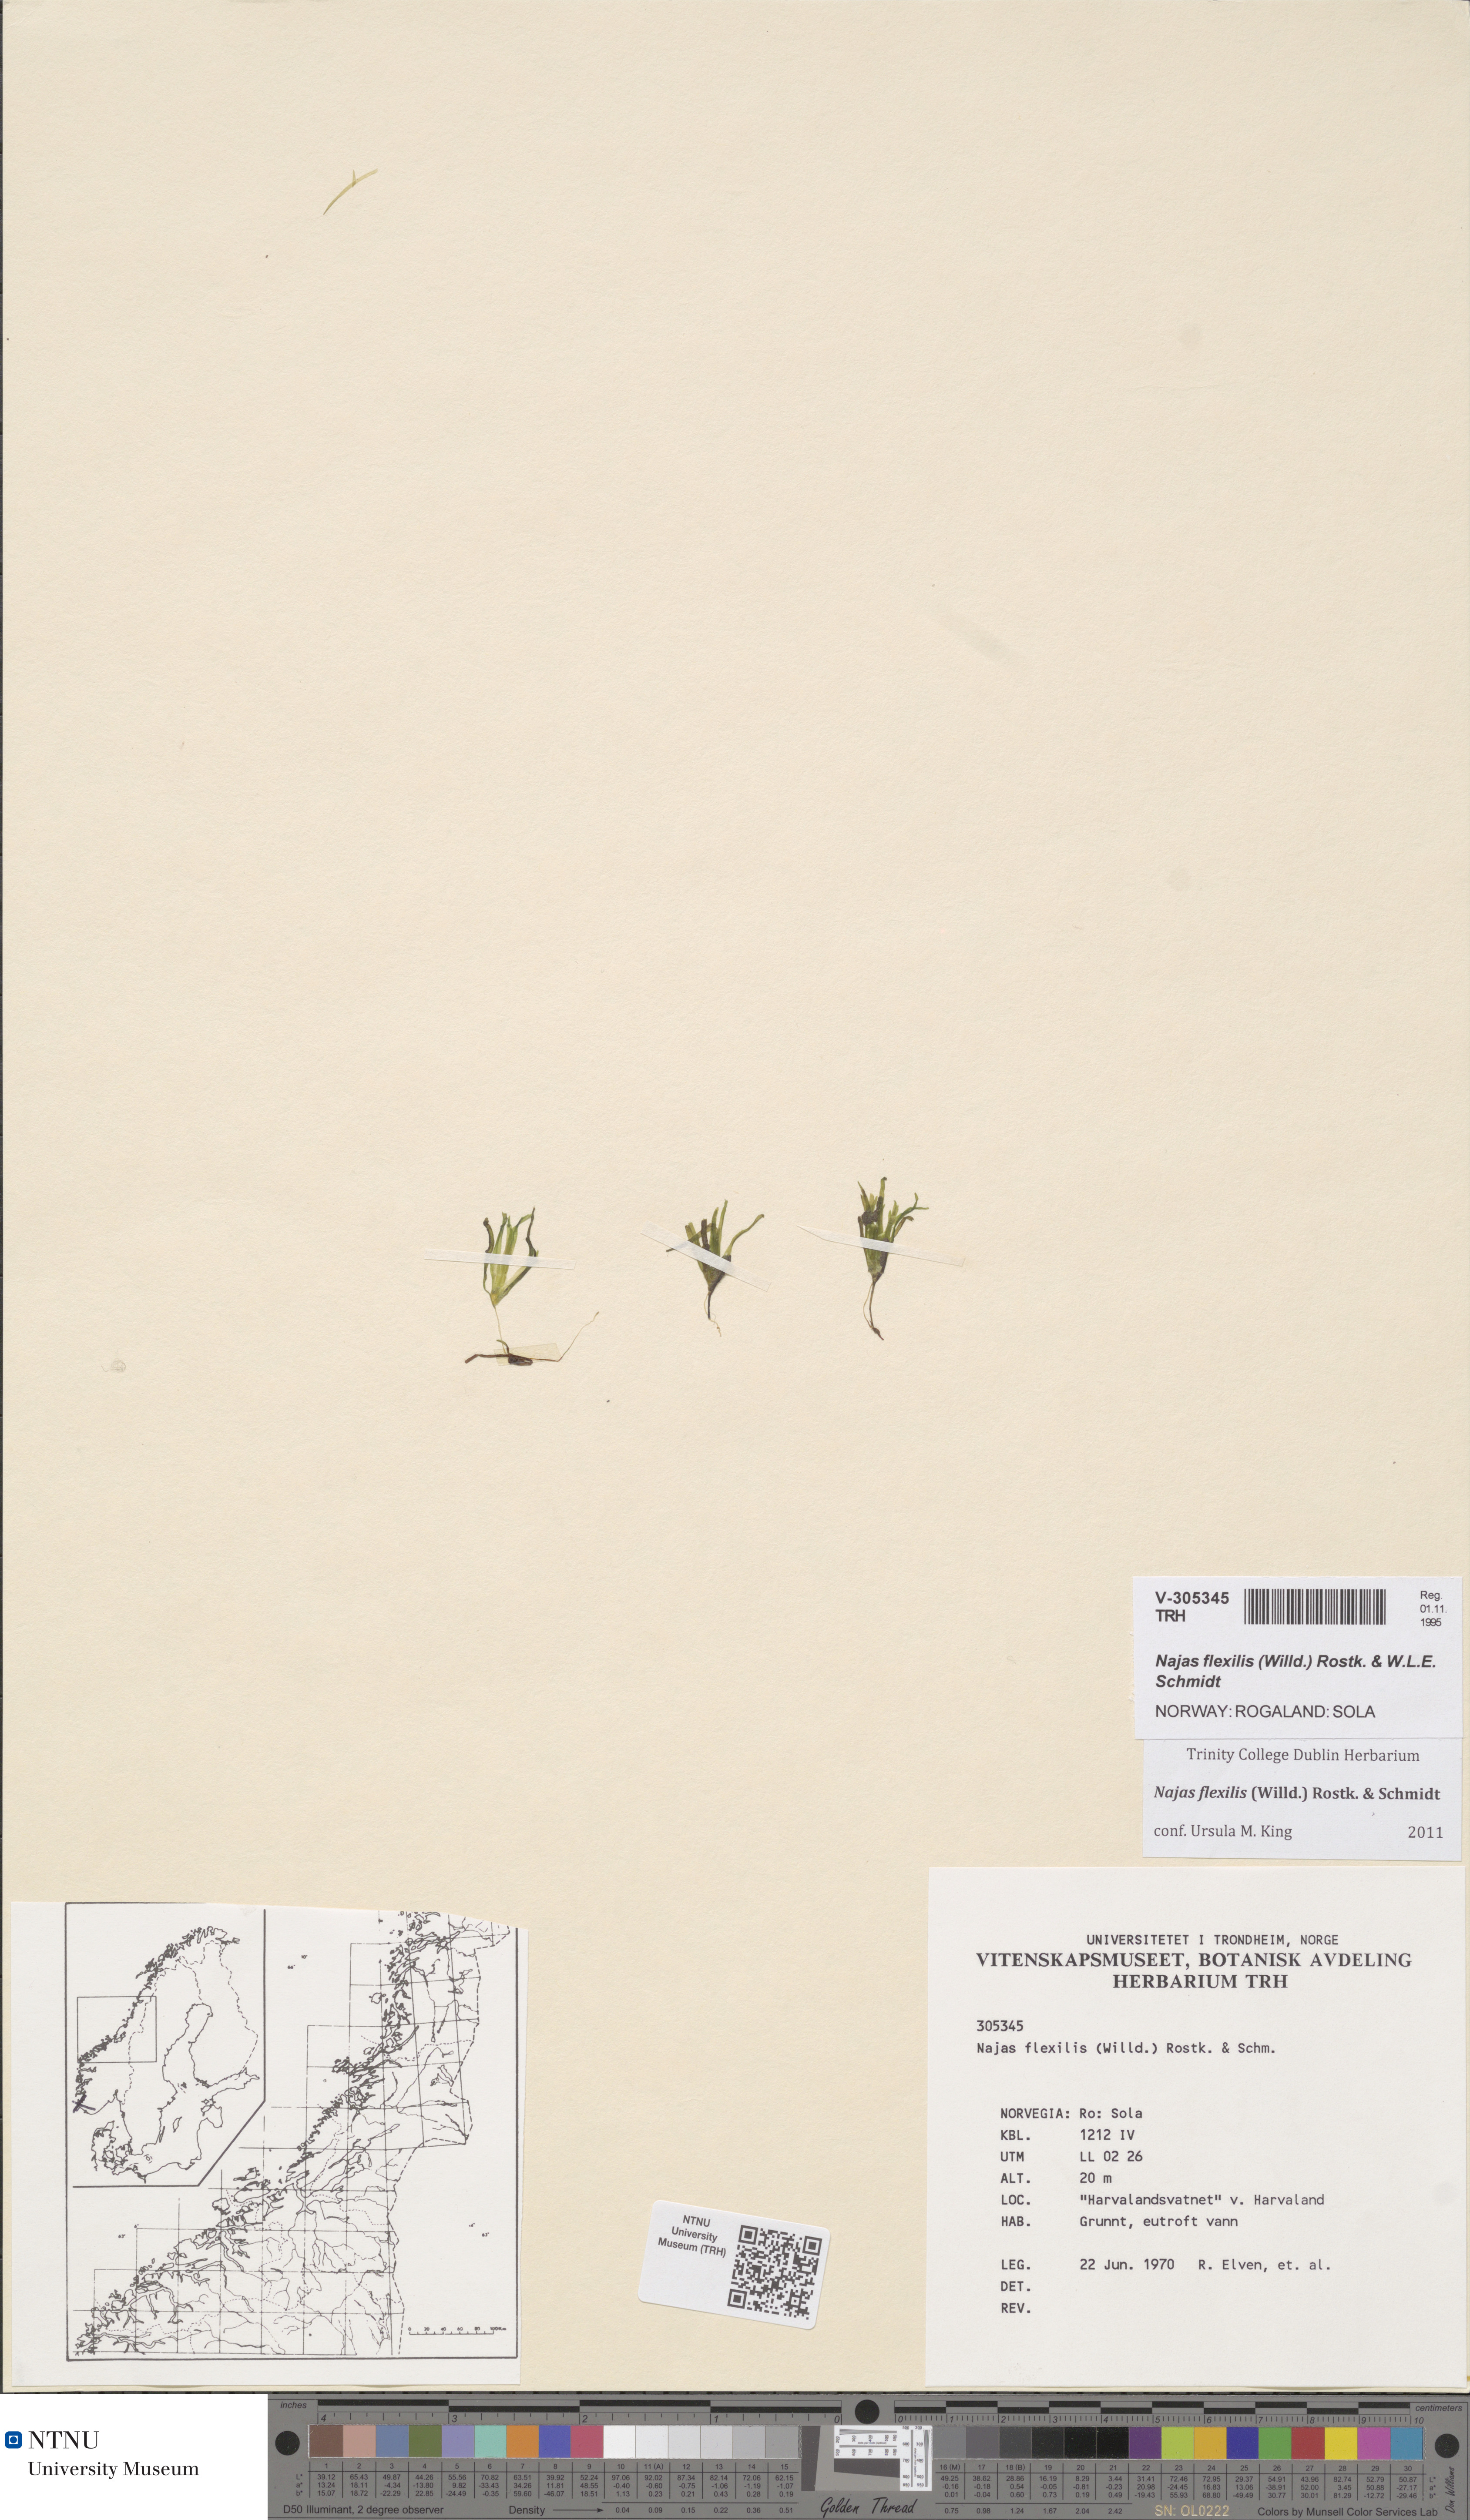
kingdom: Plantae
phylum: Tracheophyta
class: Liliopsida
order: Alismatales
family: Hydrocharitaceae
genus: Najas
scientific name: Najas flexilis
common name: Slender naiad
